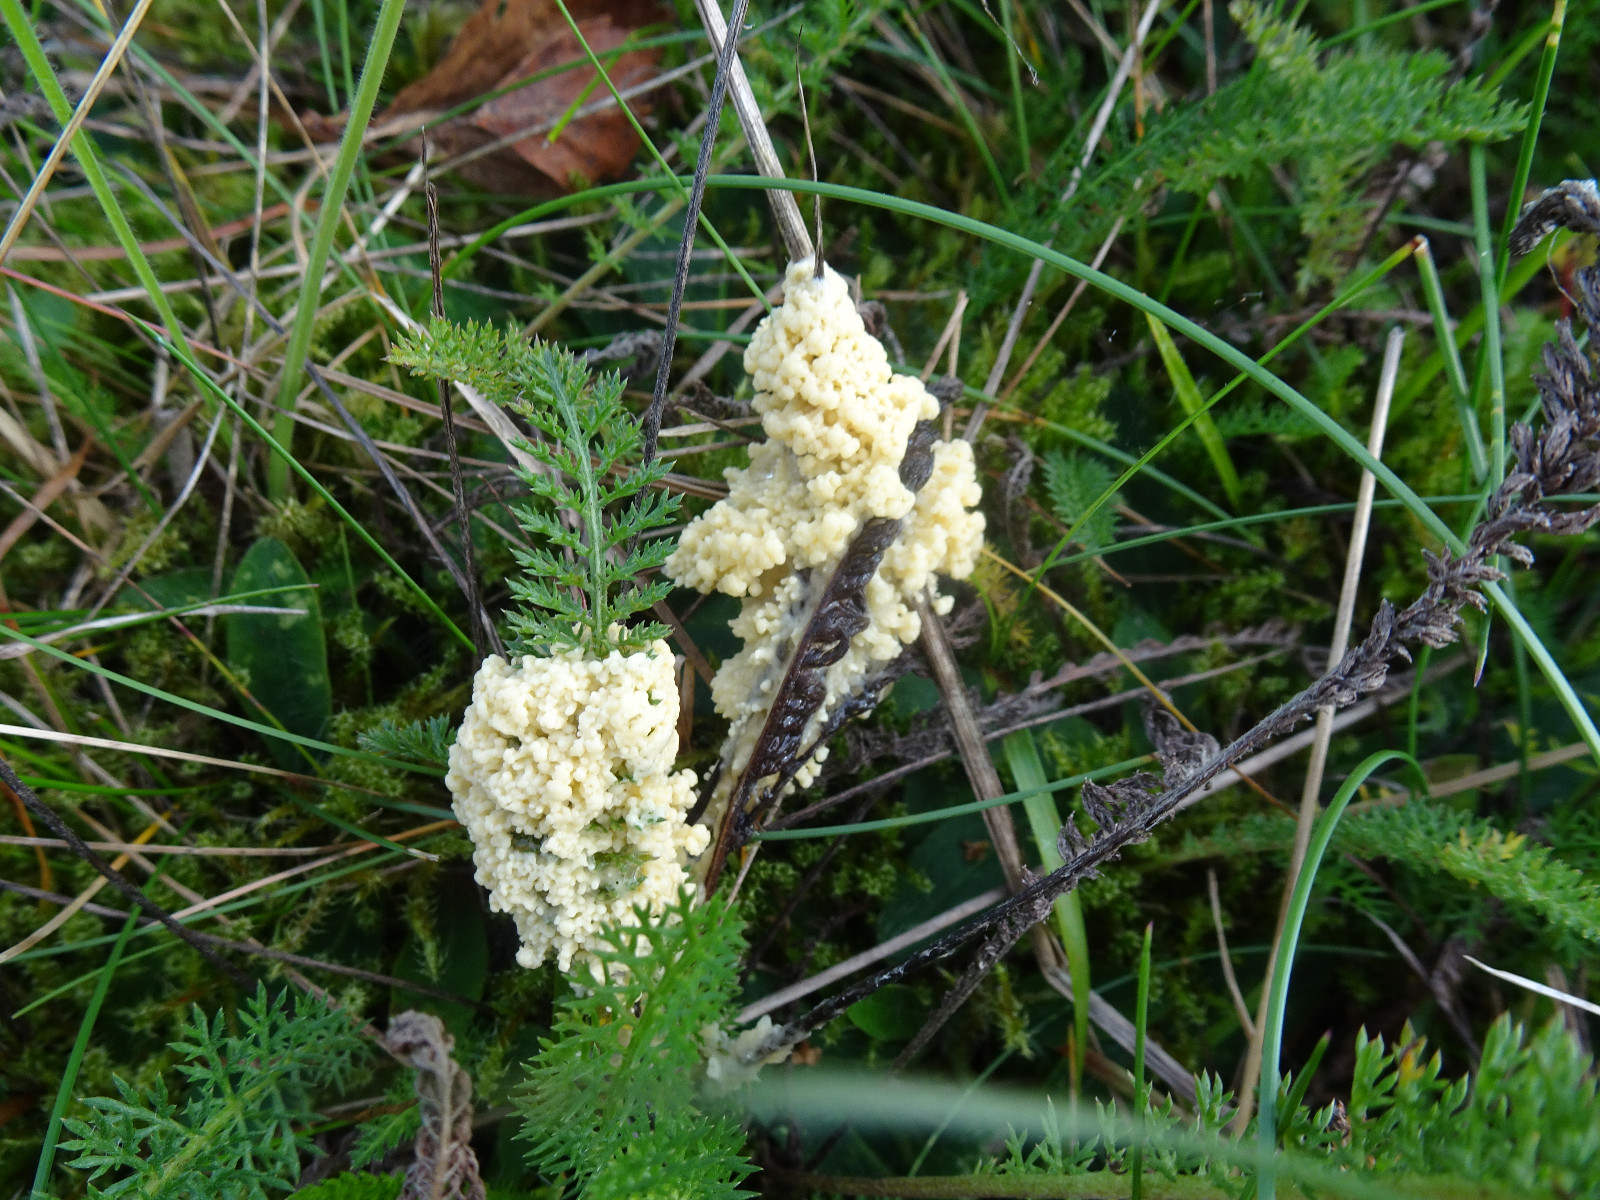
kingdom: Protozoa
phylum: Mycetozoa
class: Myxomycetes
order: Physarales
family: Physaraceae
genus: Didymium
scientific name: Didymium
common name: urteskum
